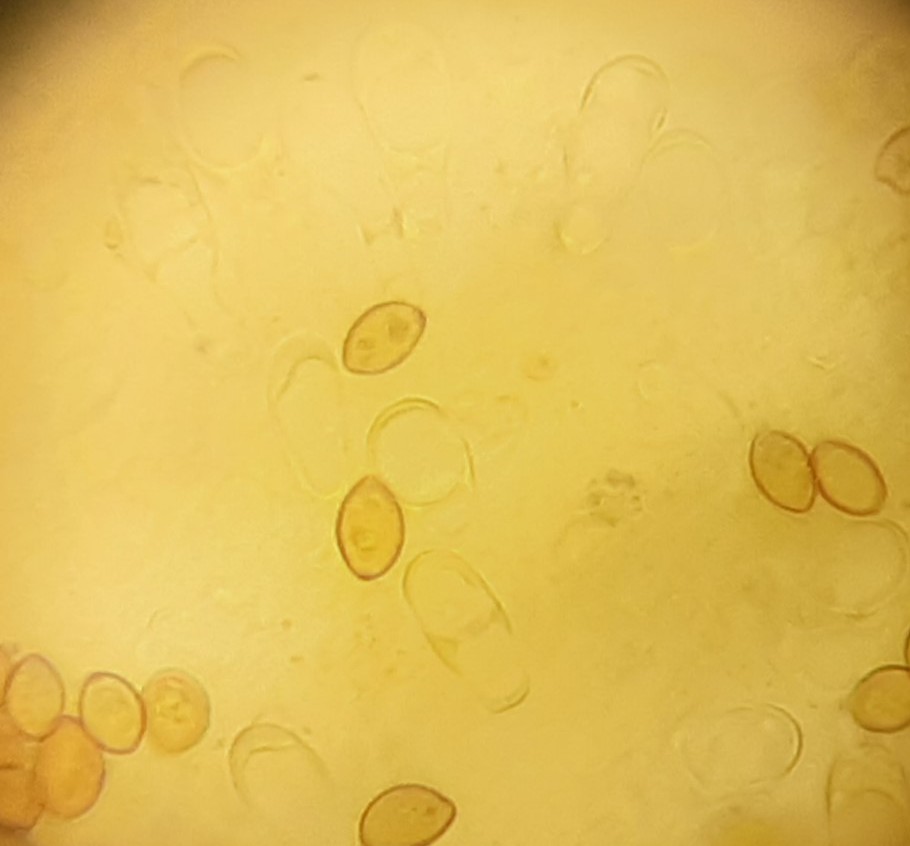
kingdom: Fungi
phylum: Basidiomycota
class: Agaricomycetes
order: Agaricales
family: Hymenogastraceae
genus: Galerina
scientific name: Galerina paludosa
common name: mose-hjelmhat
